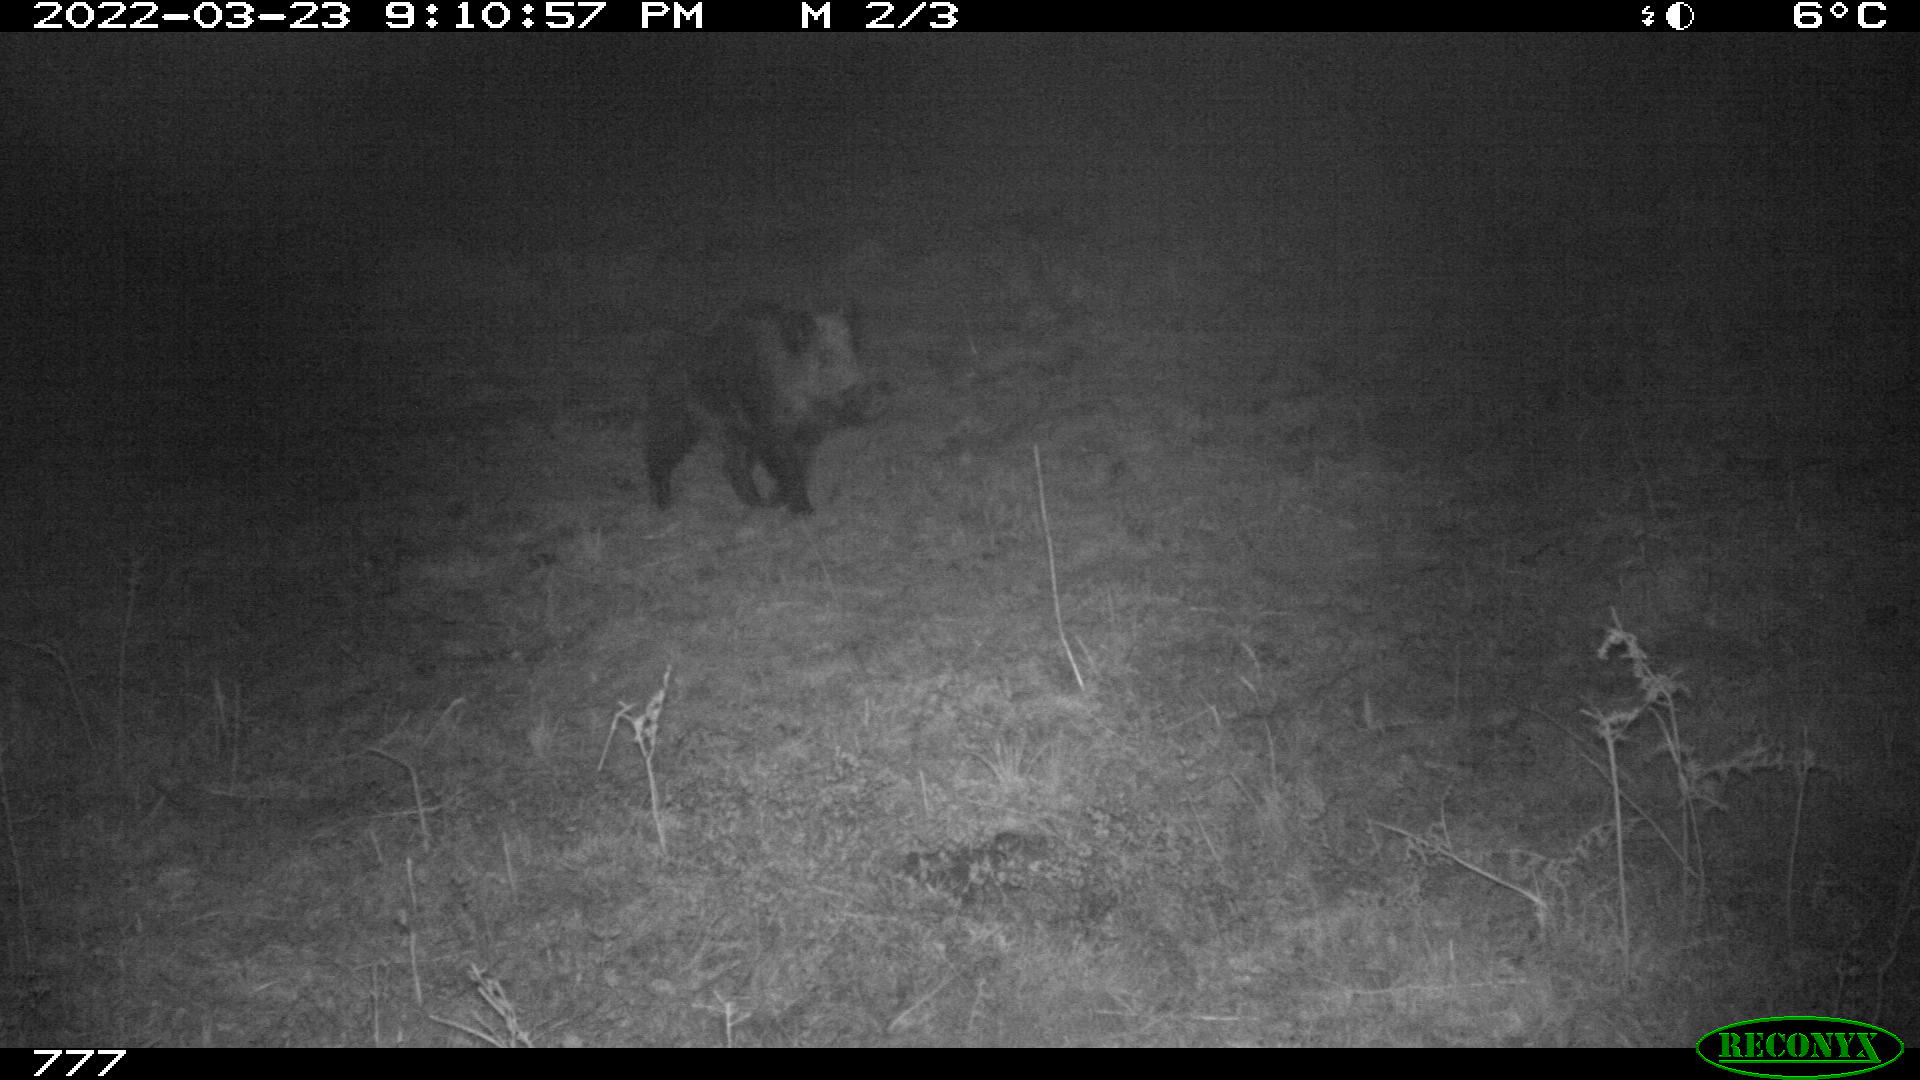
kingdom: Animalia
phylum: Chordata
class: Mammalia
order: Artiodactyla
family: Suidae
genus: Sus
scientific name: Sus scrofa
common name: Wild boar
